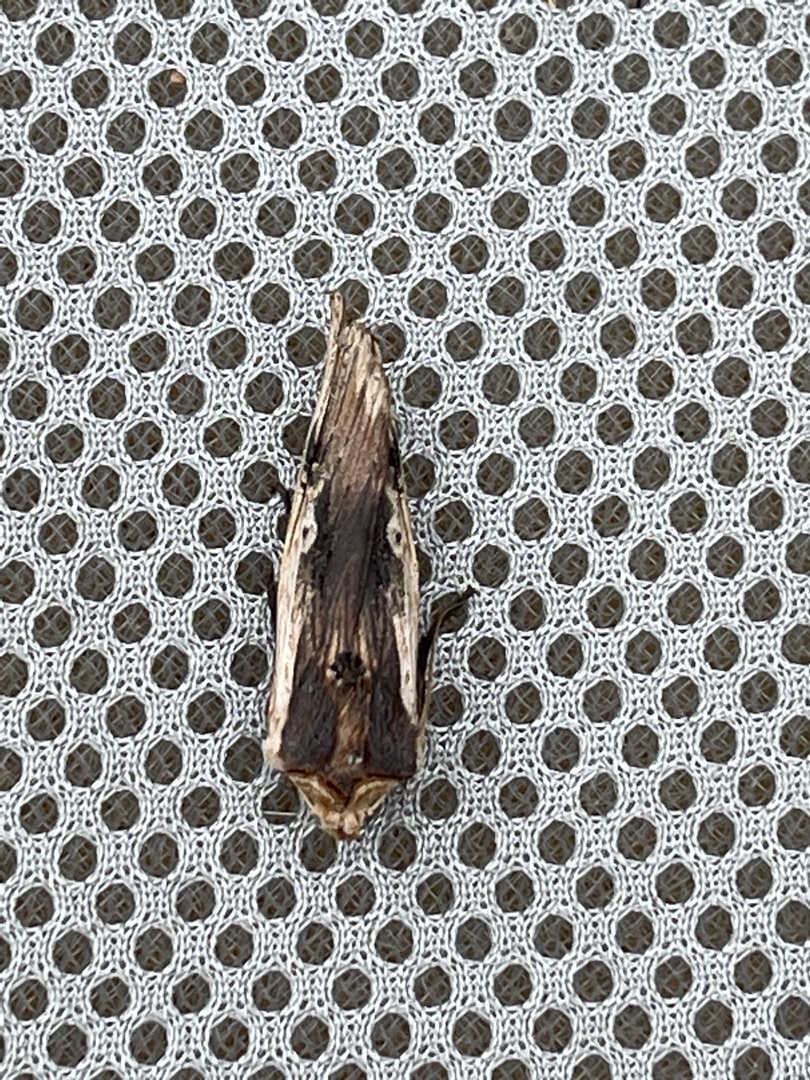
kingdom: Animalia
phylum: Arthropoda
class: Insecta
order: Lepidoptera
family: Noctuidae
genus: Xylena
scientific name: Xylena vetusta
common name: Irisugle
